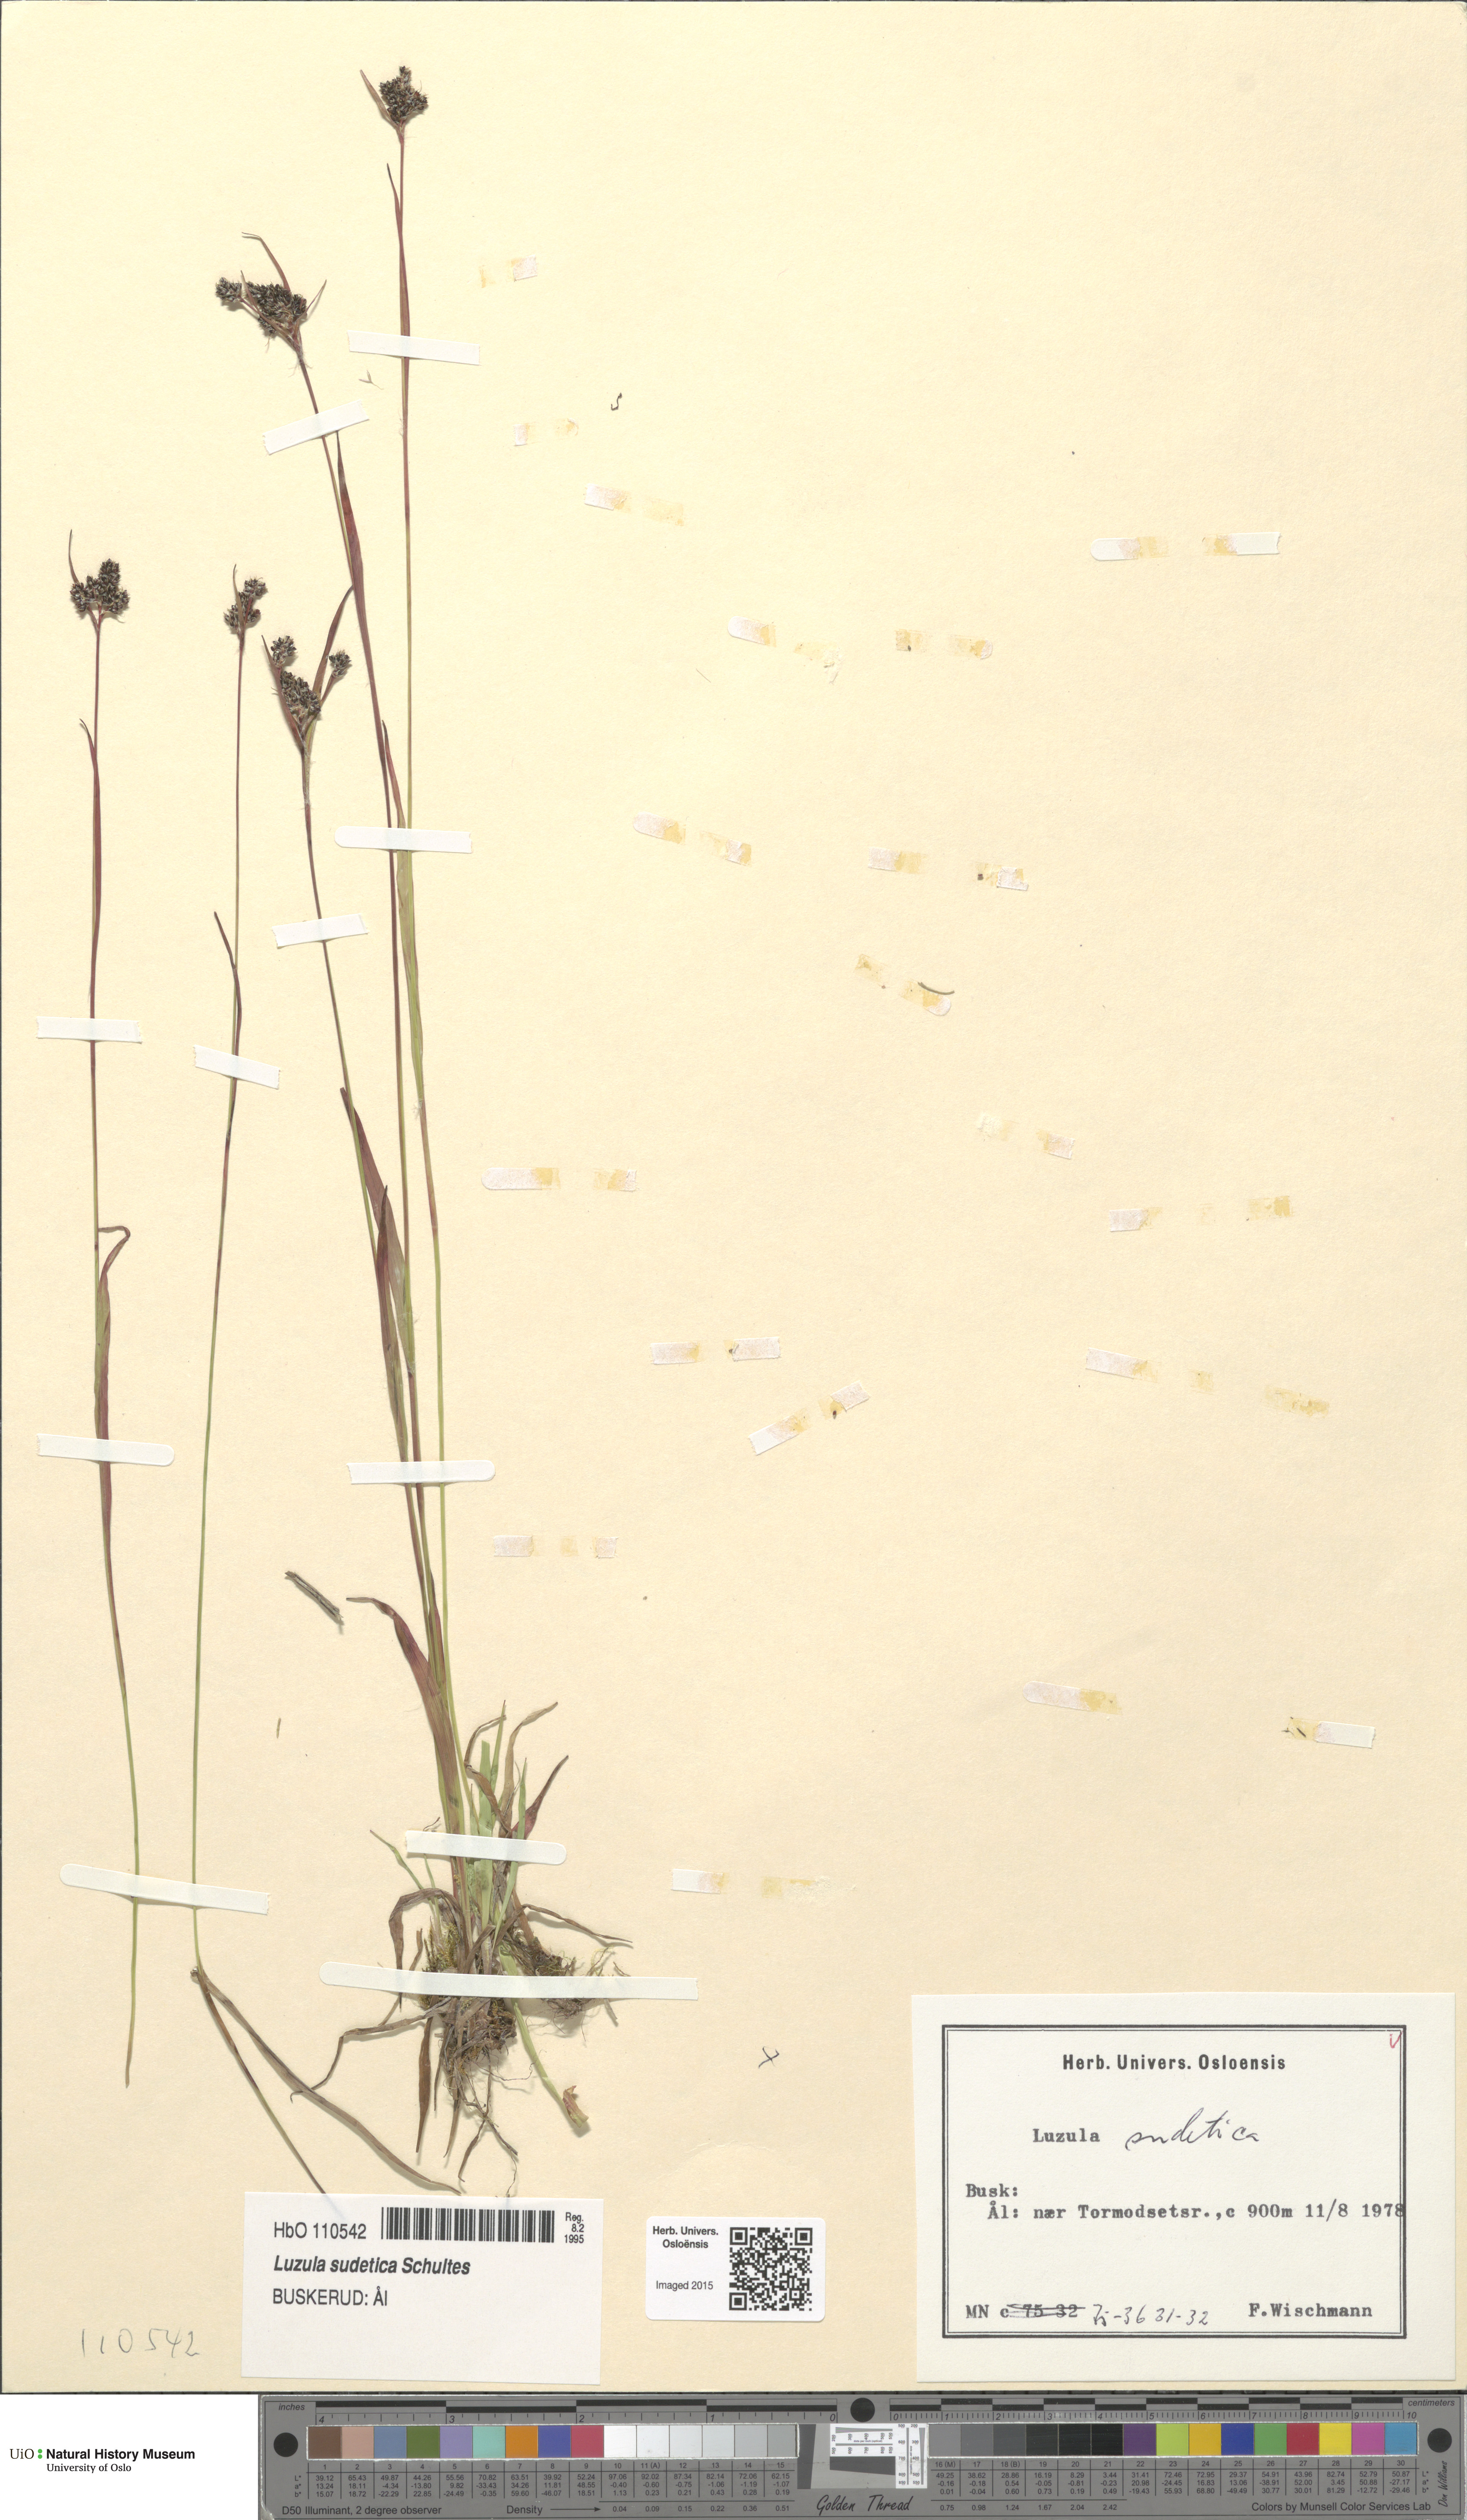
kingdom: Plantae
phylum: Tracheophyta
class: Liliopsida
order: Poales
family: Juncaceae
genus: Luzula
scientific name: Luzula sudetica
